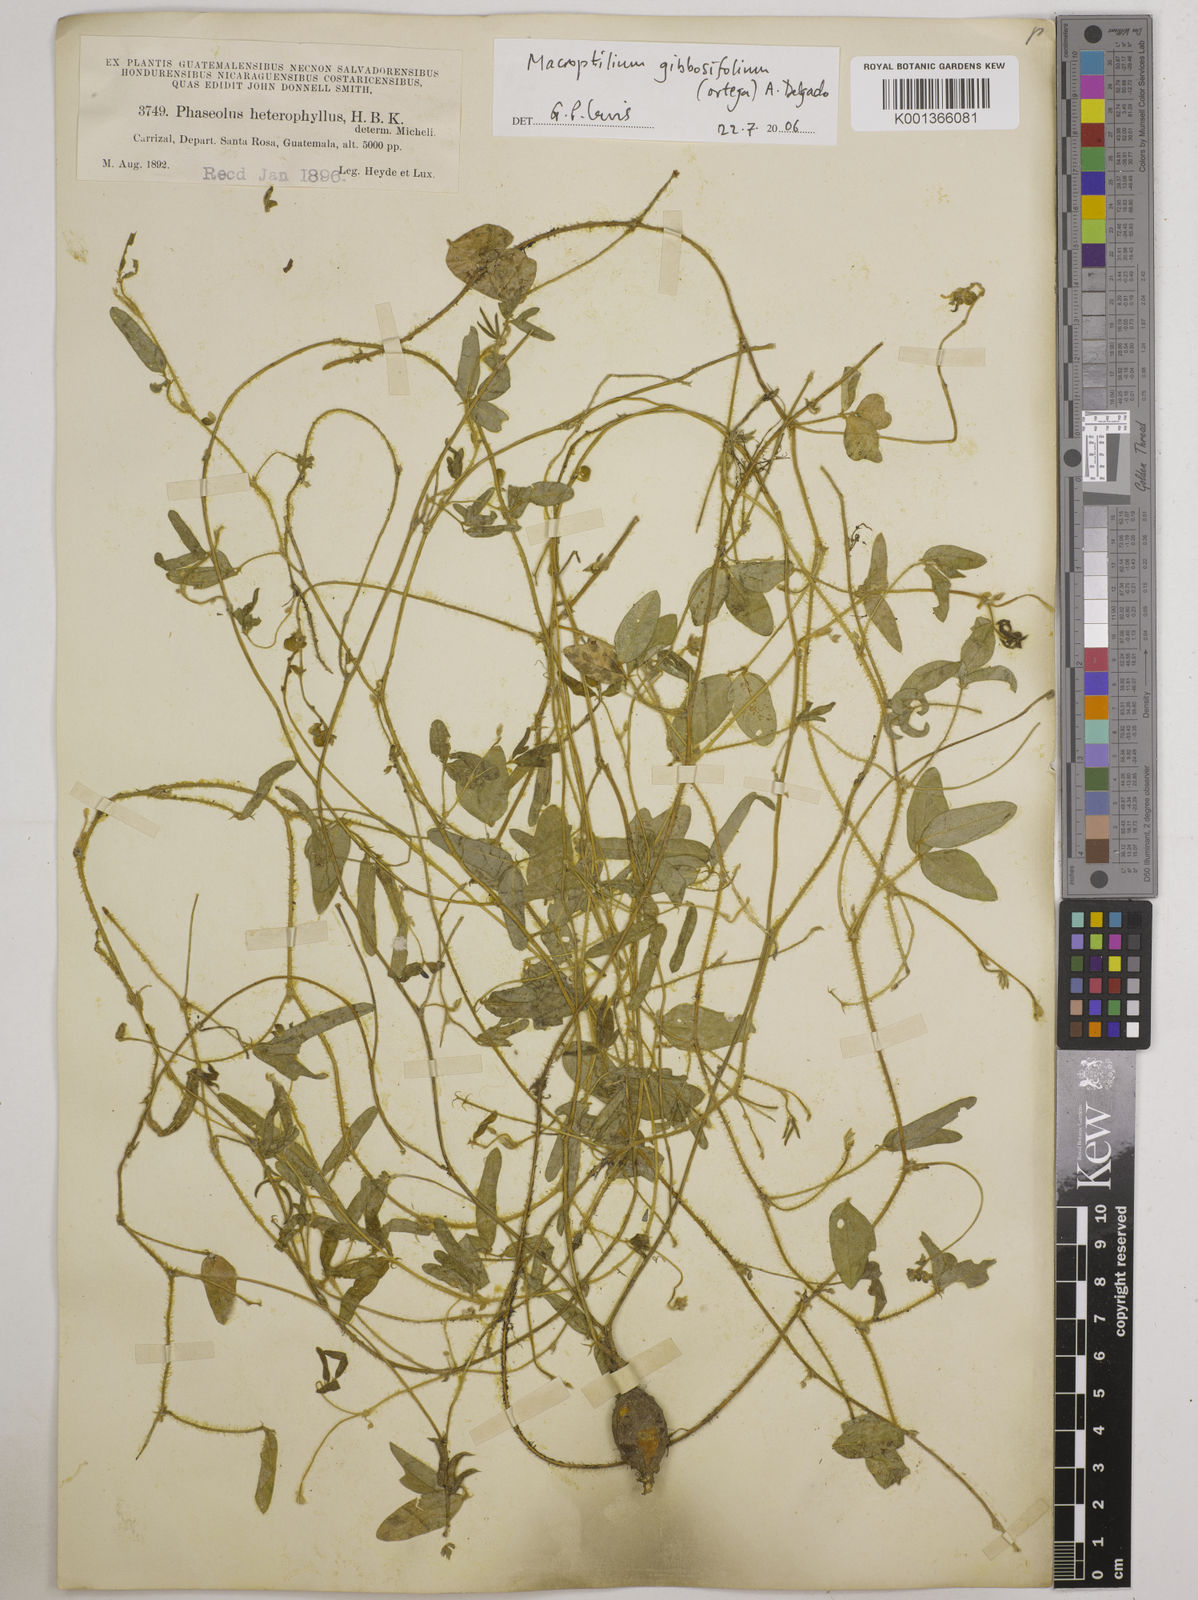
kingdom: Plantae
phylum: Tracheophyta
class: Magnoliopsida
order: Fabales
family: Fabaceae
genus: Macroptilium
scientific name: Macroptilium gibbosifolium
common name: Variableleaf bushbean
